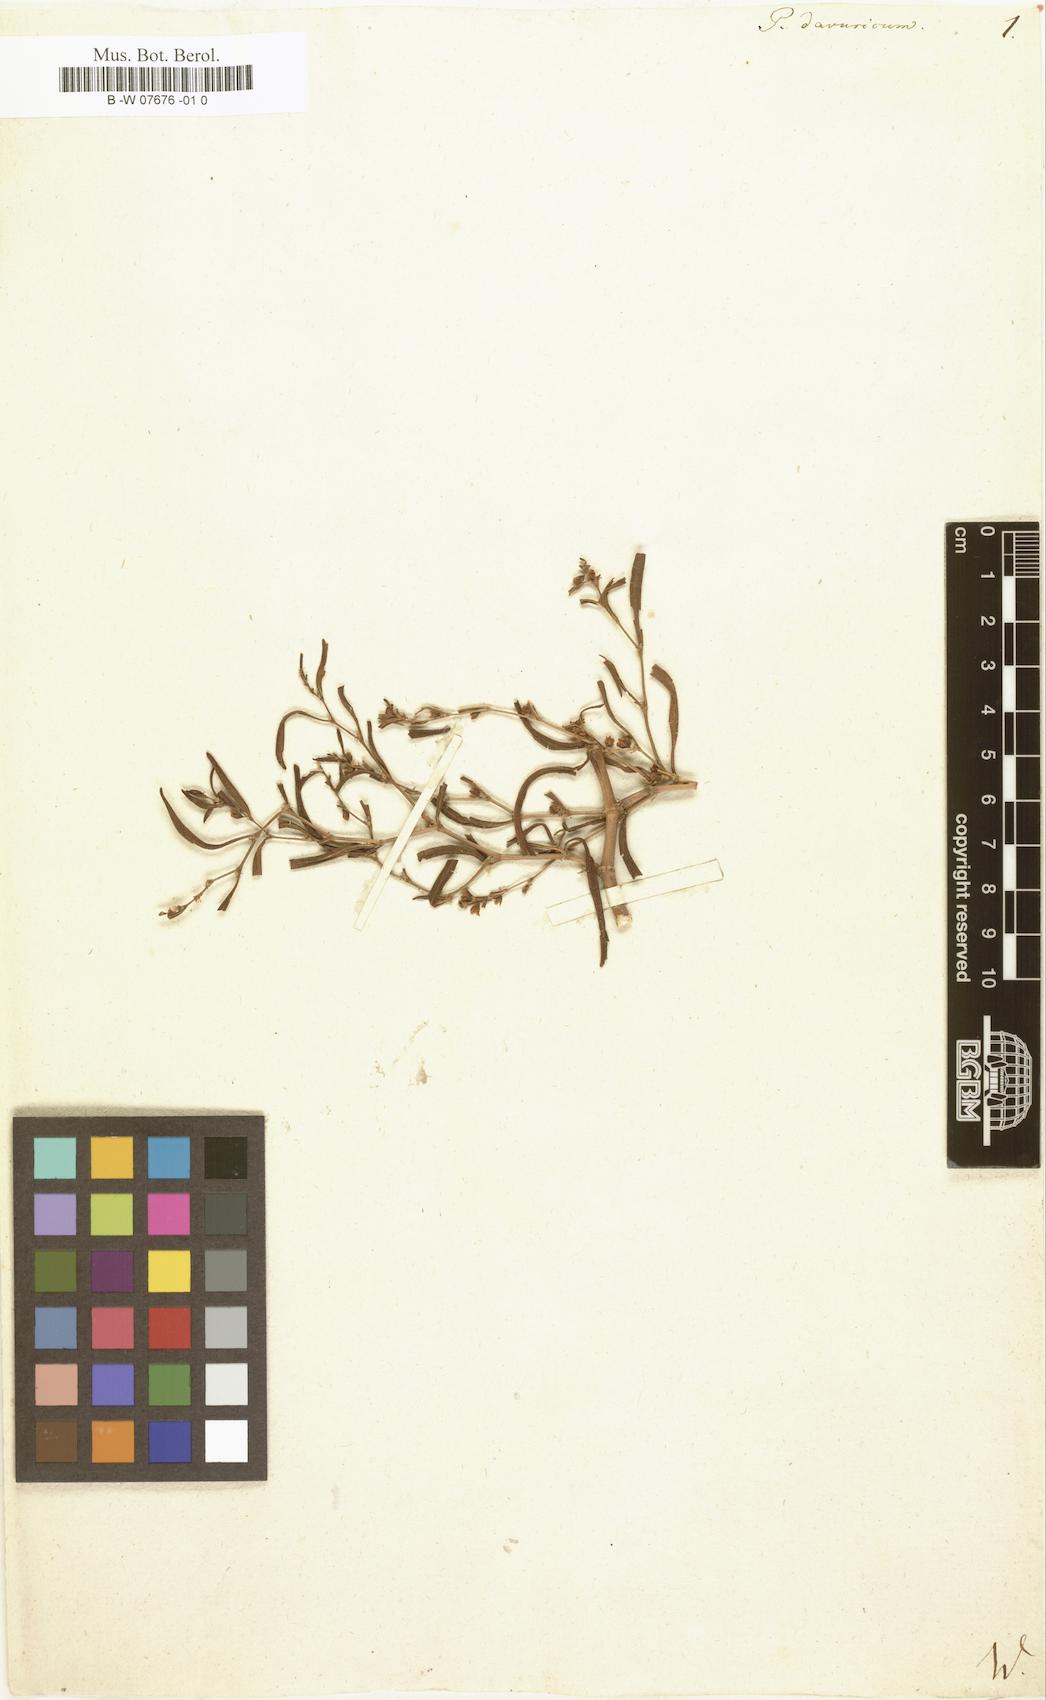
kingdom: Plantae
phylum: Tracheophyta
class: Magnoliopsida
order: Caryophyllales
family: Polygonaceae
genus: Koenigia
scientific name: Koenigia ocreata
